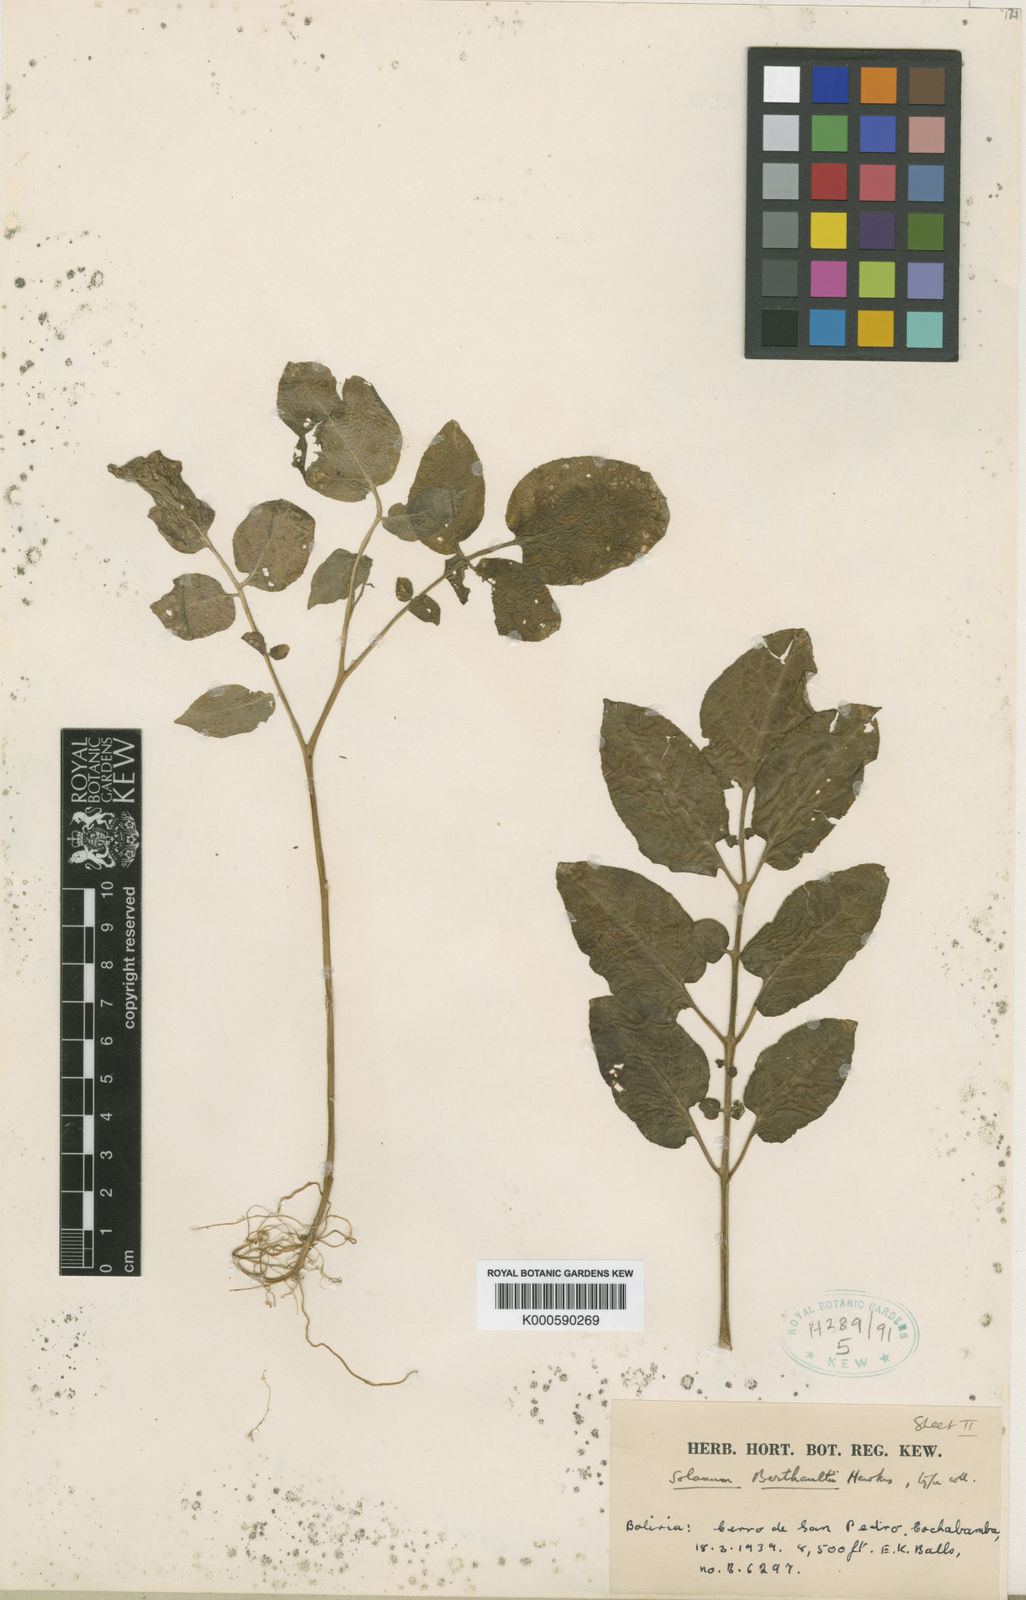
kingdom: Plantae
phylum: Tracheophyta
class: Magnoliopsida
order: Solanales
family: Solanaceae
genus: Solanum
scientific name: Solanum berthaultii
